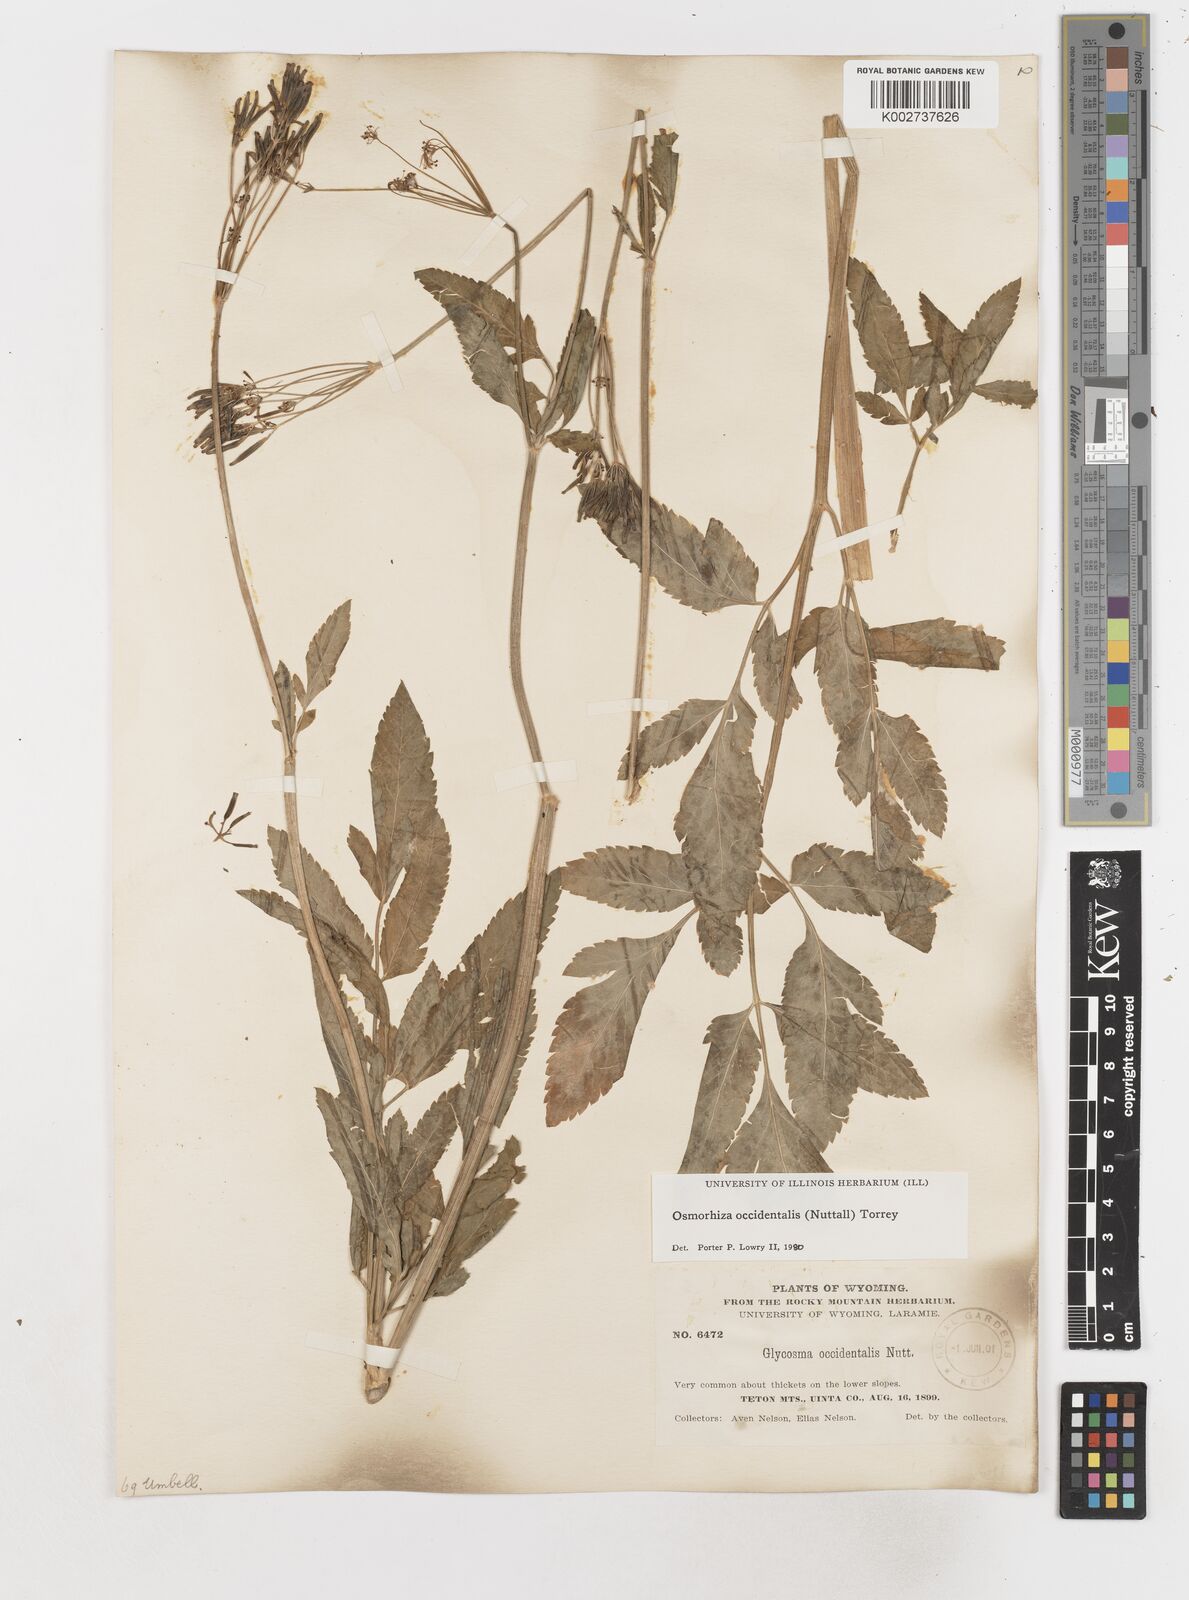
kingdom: Plantae
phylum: Tracheophyta
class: Magnoliopsida
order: Apiales
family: Apiaceae
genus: Osmorhiza
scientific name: Osmorhiza occidentalis
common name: Western sweet cicely
